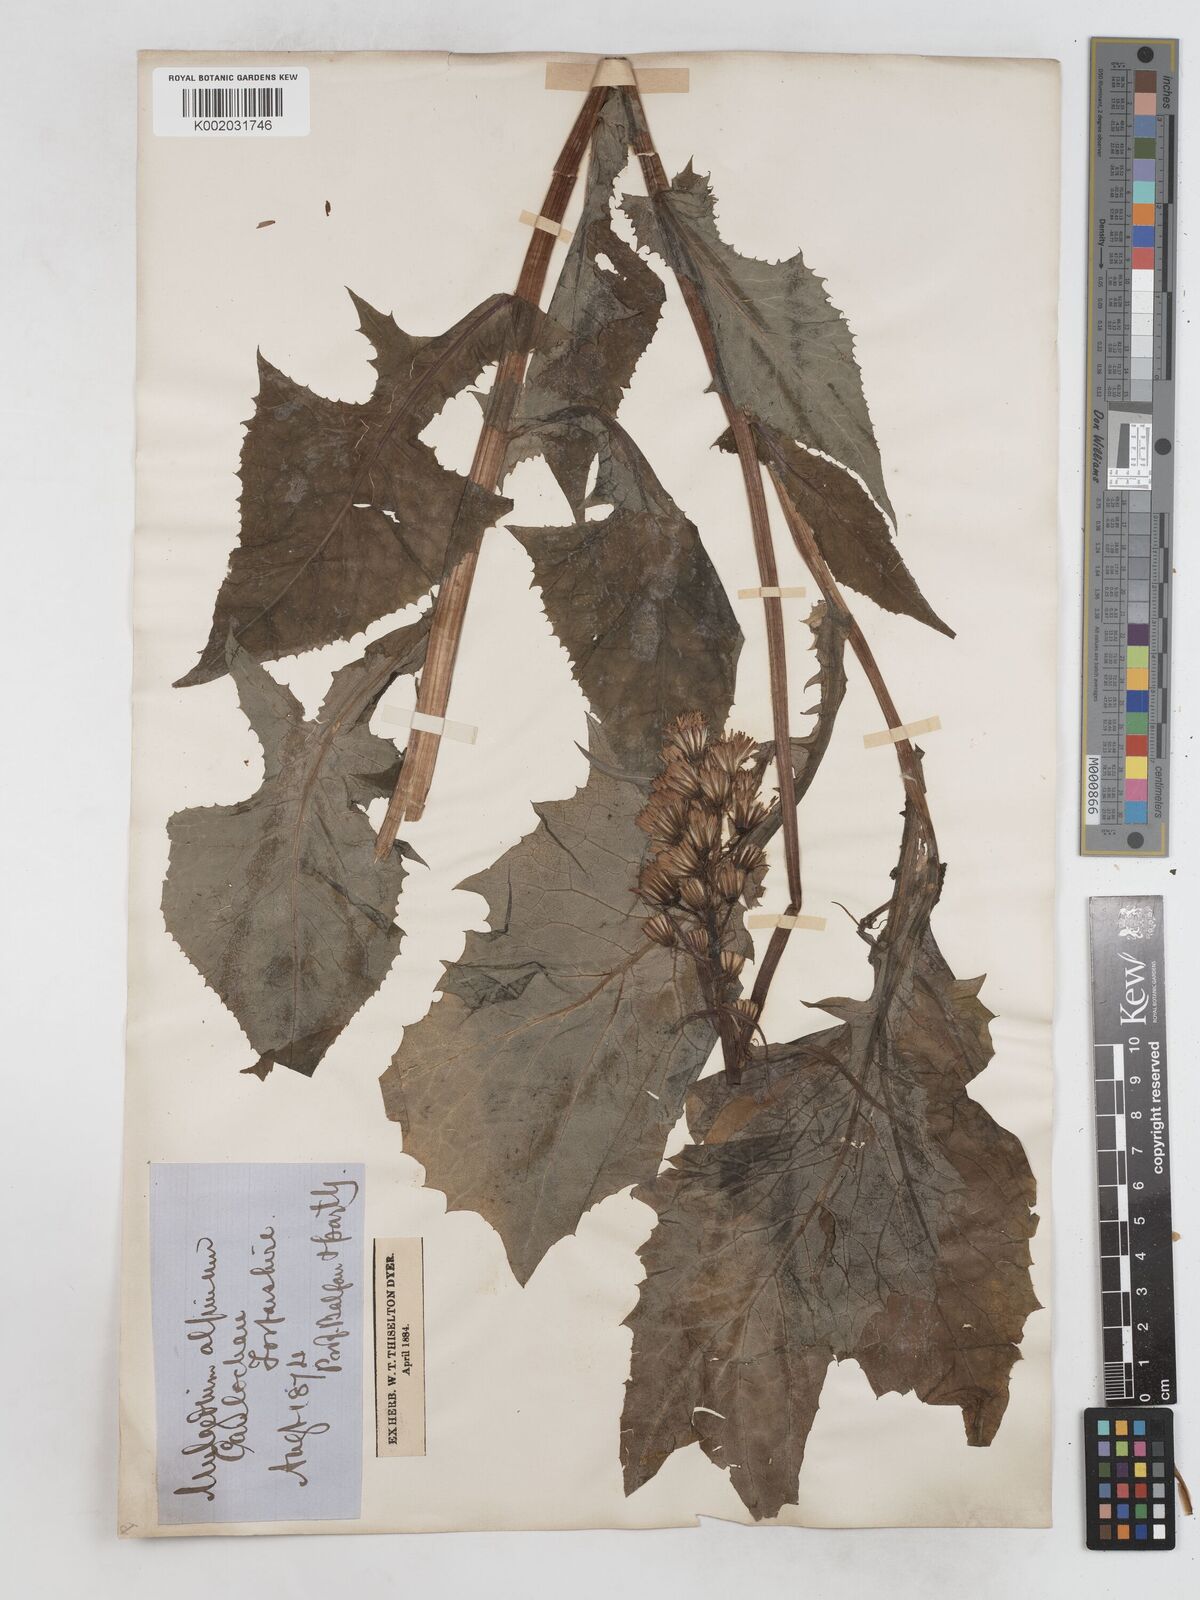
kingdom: Plantae
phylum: Tracheophyta
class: Magnoliopsida
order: Asterales
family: Asteraceae
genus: Cicerbita
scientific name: Cicerbita alpina
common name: Alpine blue-sow-thistle
